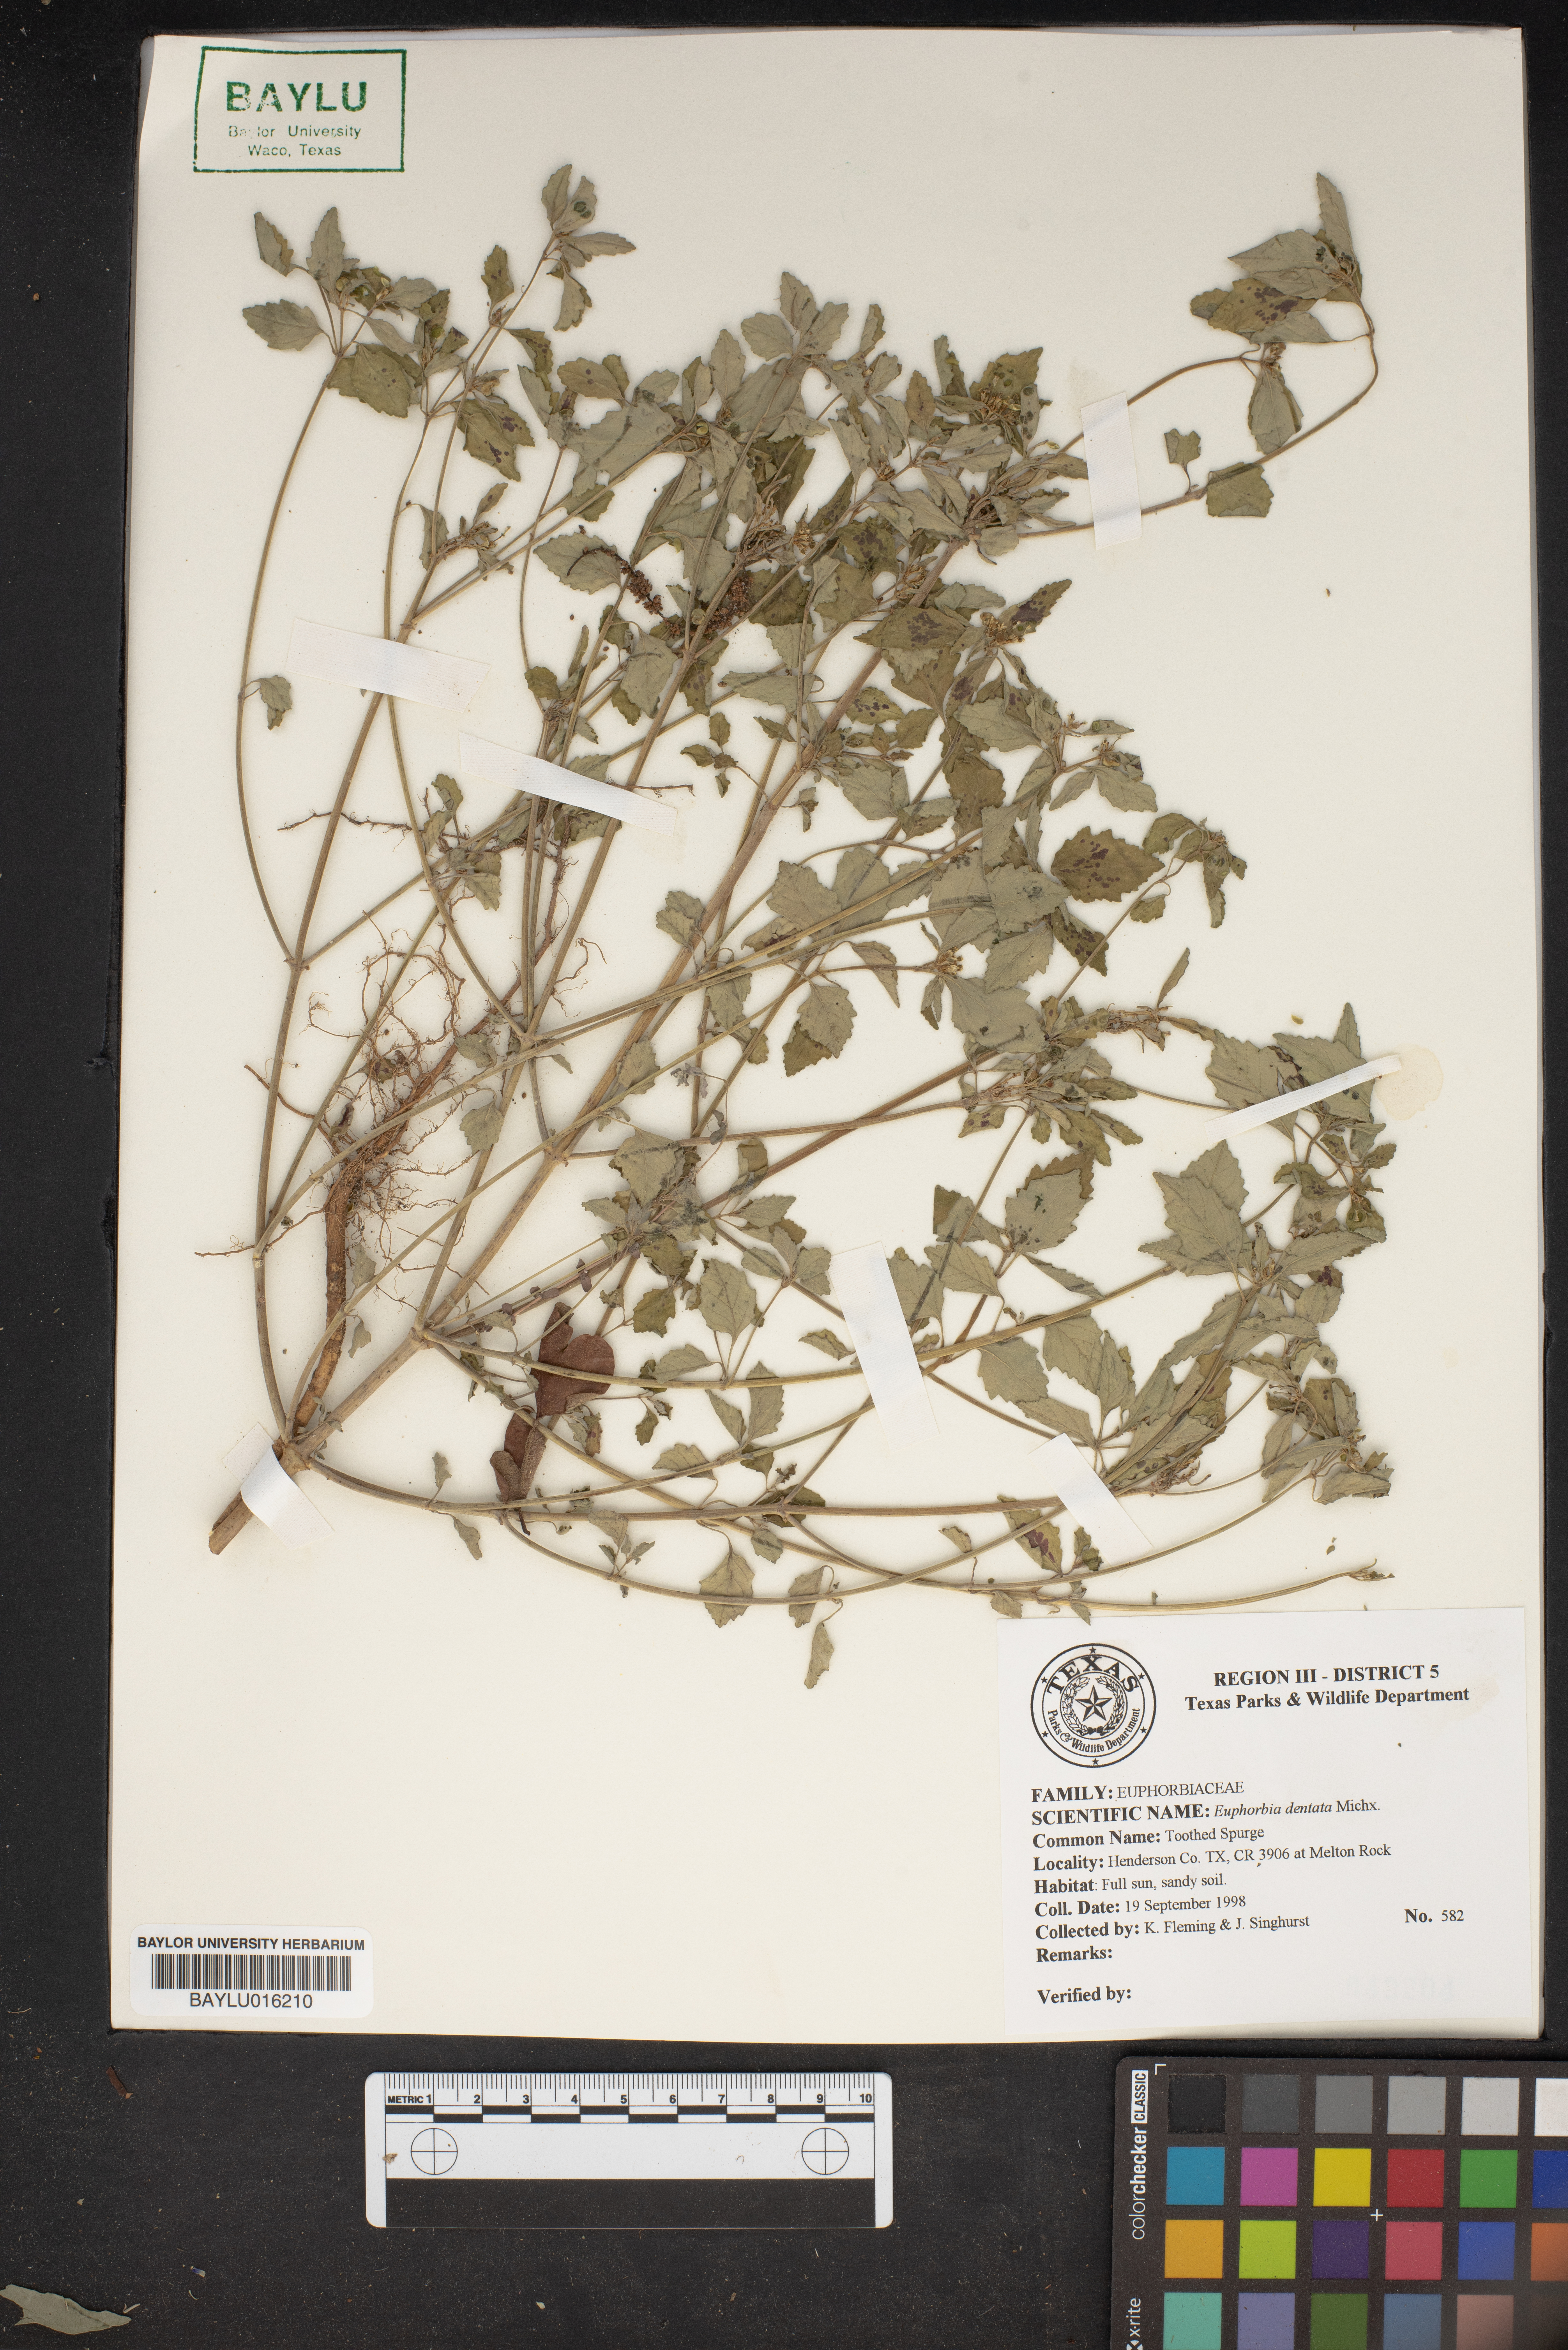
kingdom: Plantae
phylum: Tracheophyta
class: Magnoliopsida
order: Malpighiales
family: Euphorbiaceae
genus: Euphorbia
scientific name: Euphorbia dentata
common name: Dentate spurge
